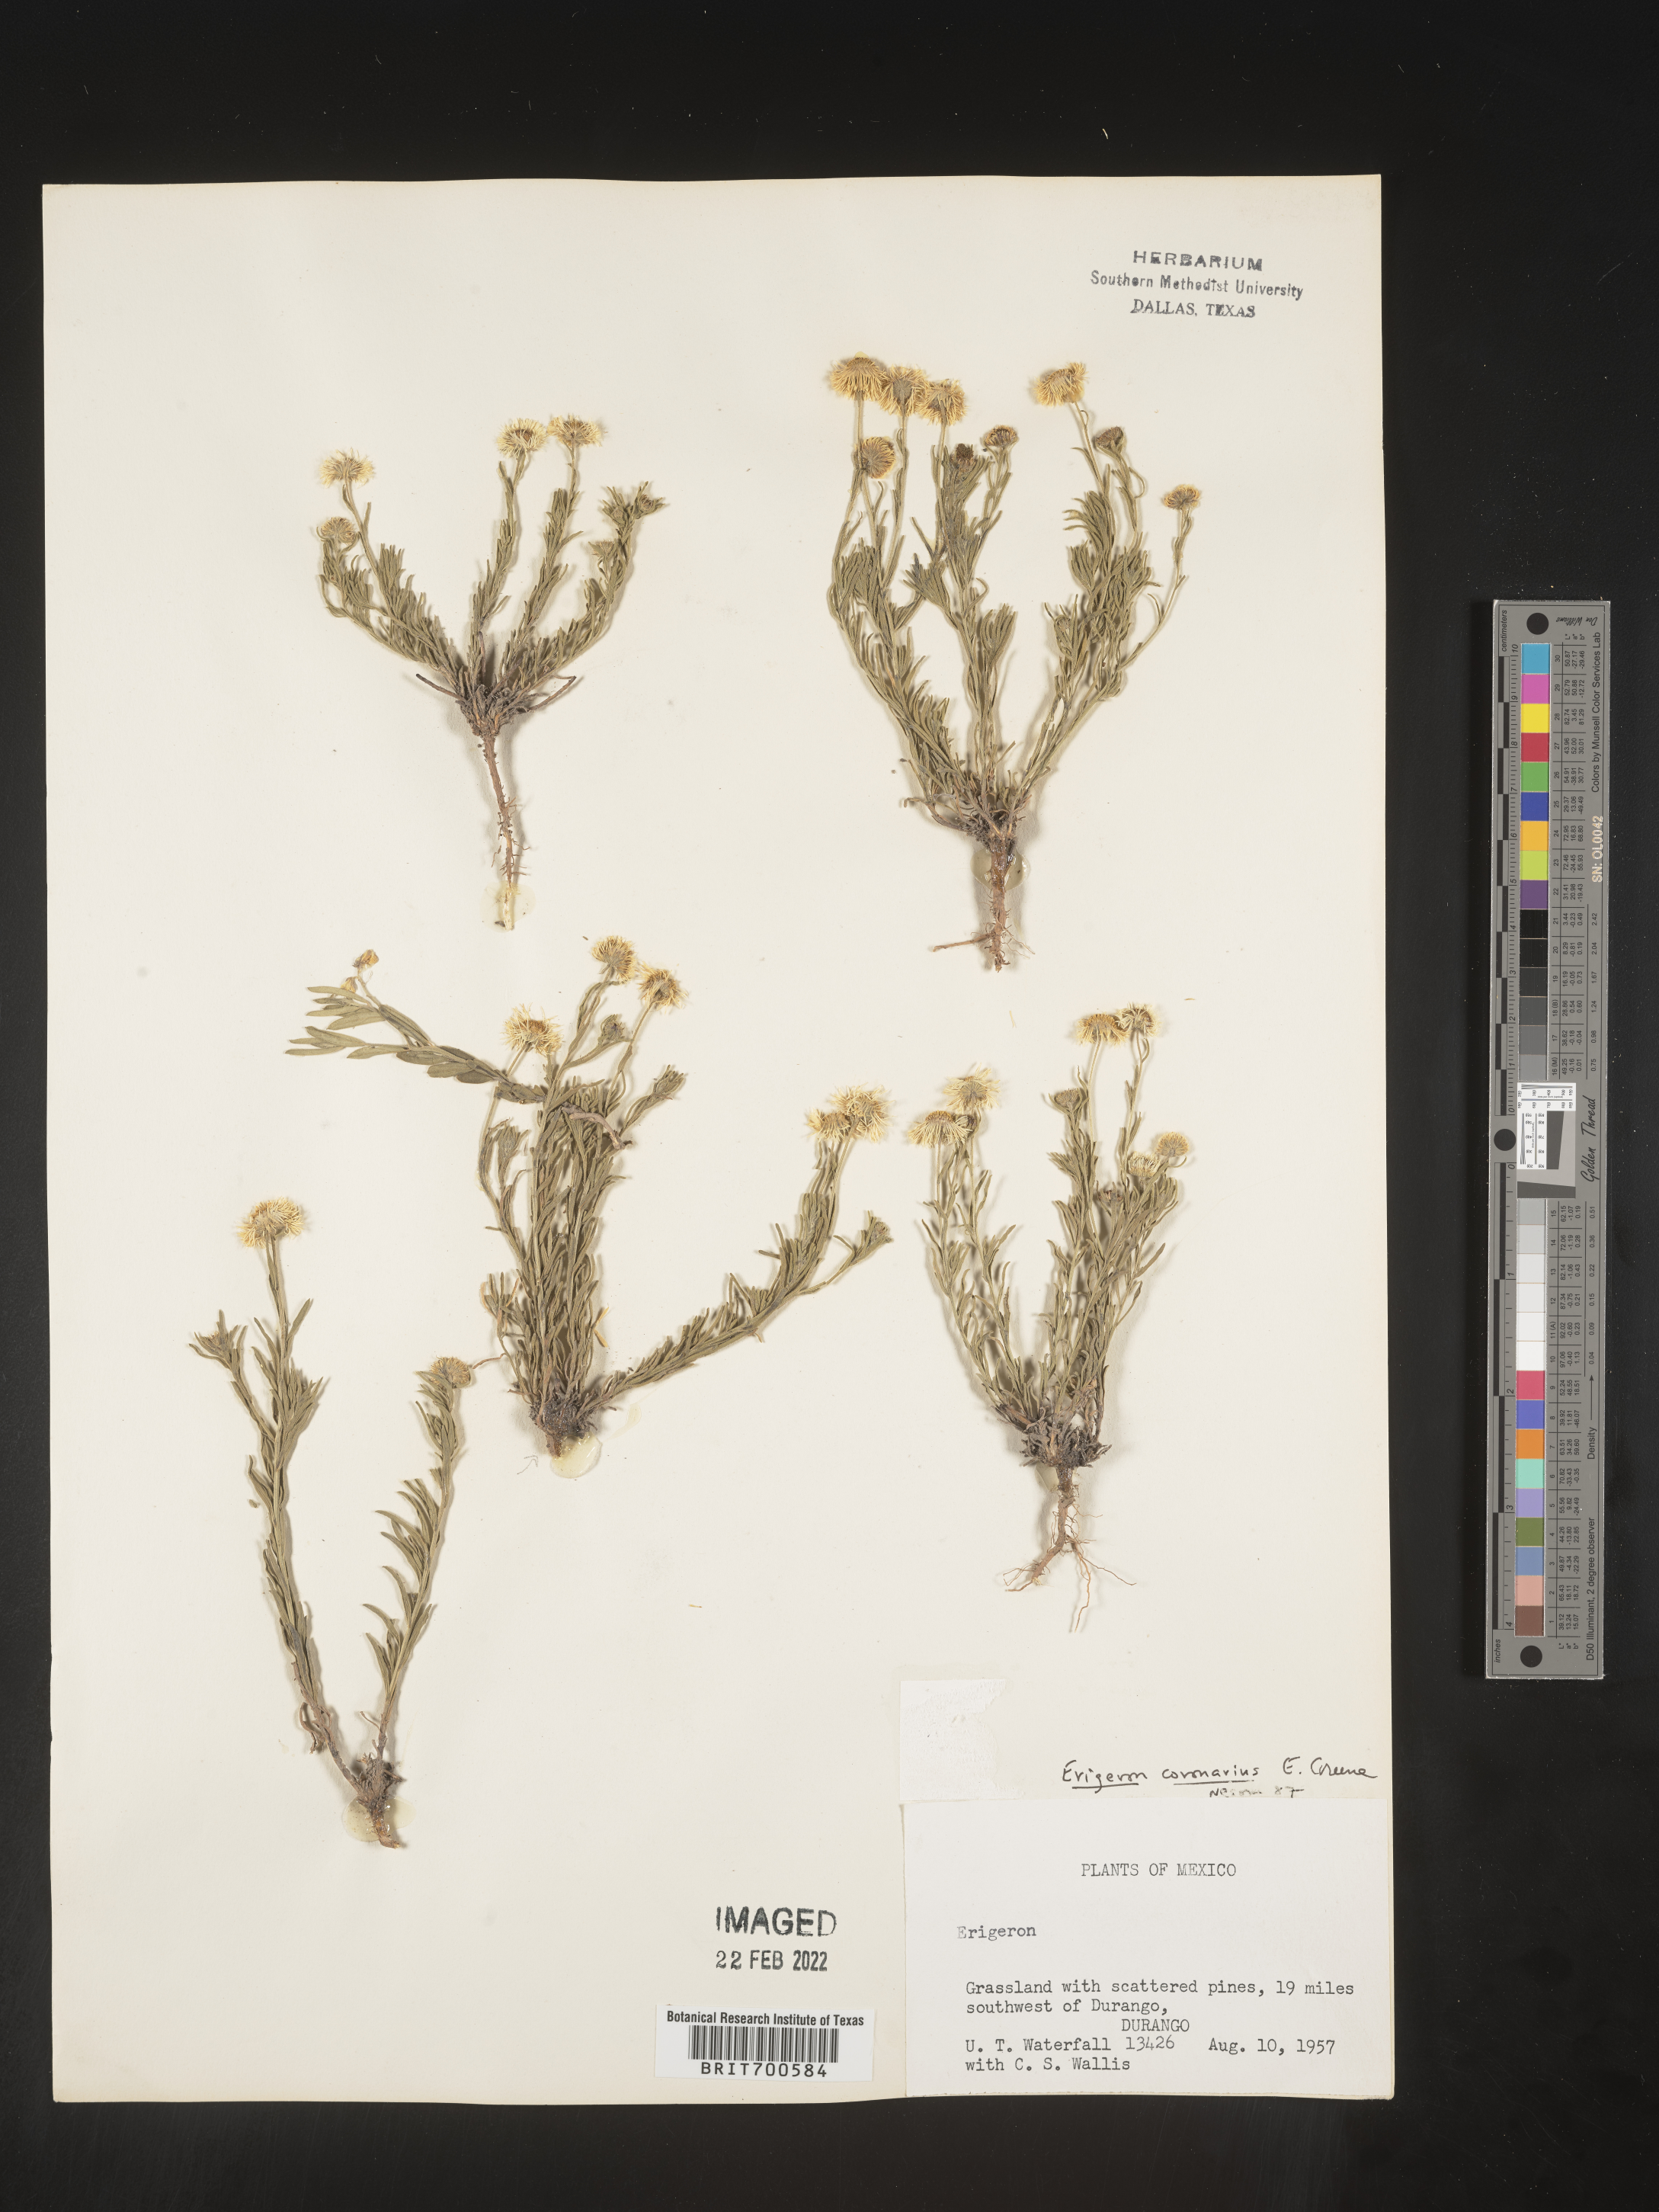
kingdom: Plantae
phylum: Tracheophyta
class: Magnoliopsida
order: Asterales
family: Asteraceae
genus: Erigeron
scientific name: Erigeron coronarius
